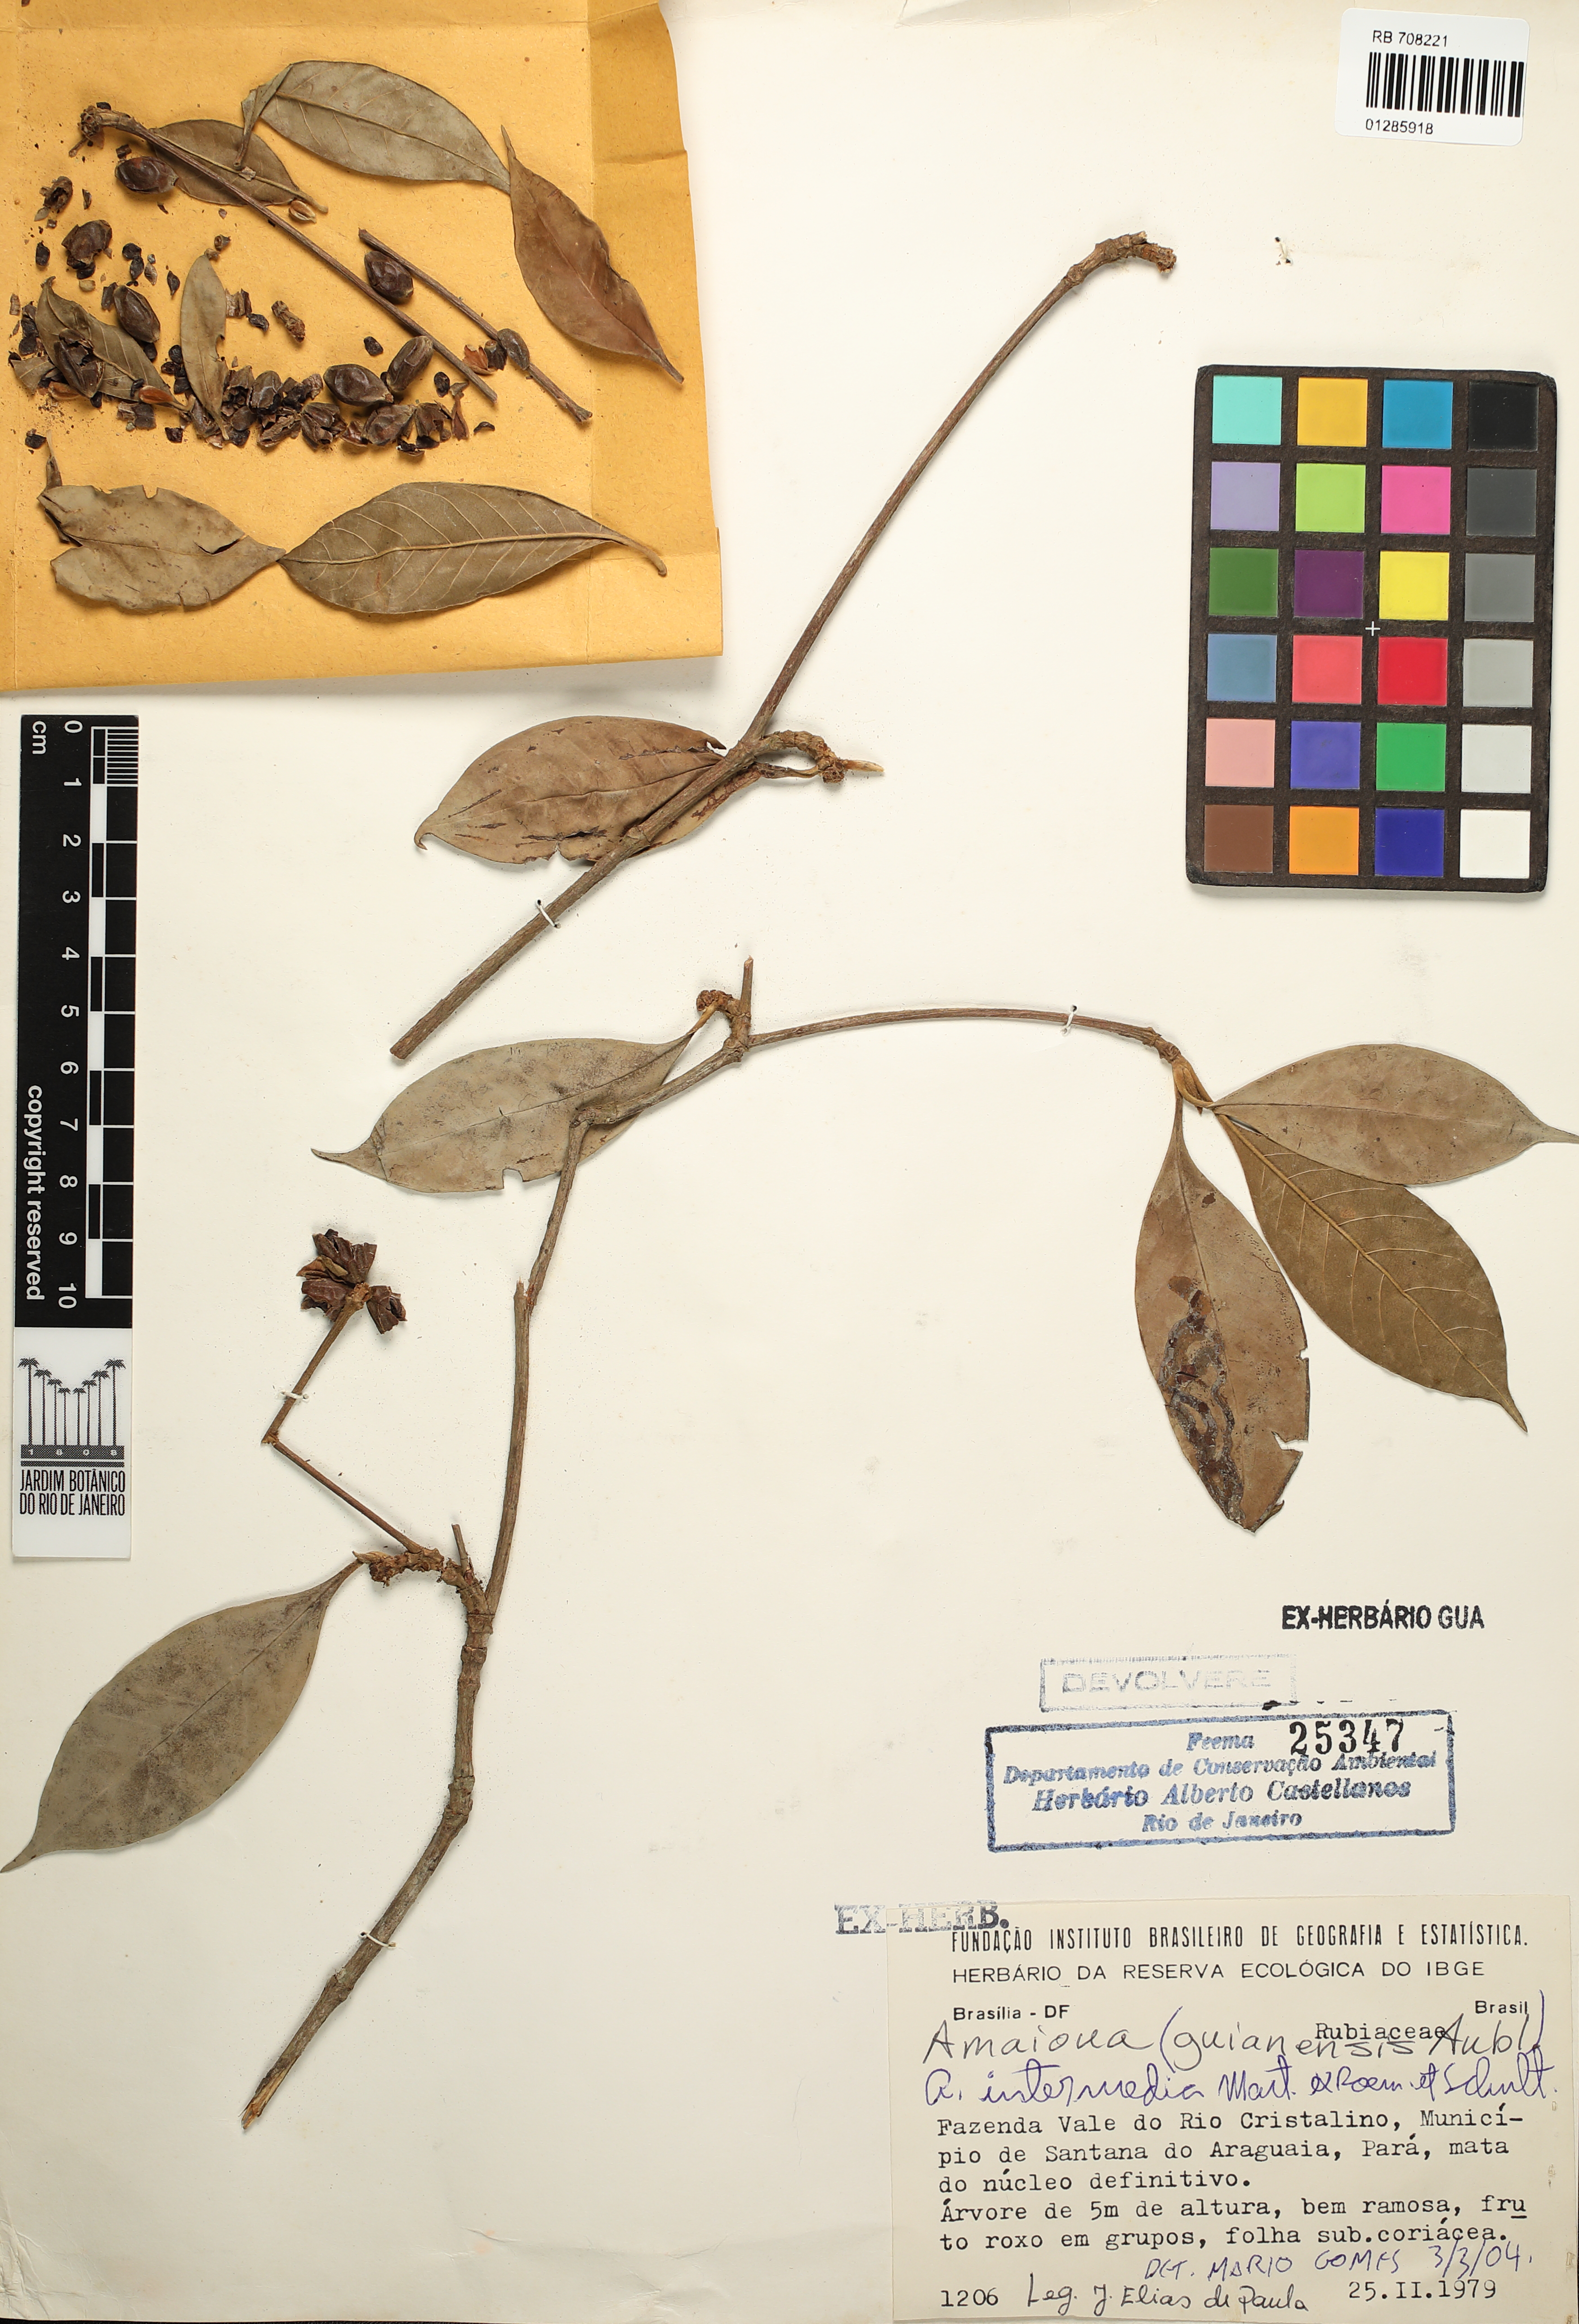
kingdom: Plantae
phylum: Tracheophyta
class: Magnoliopsida
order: Gentianales
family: Rubiaceae
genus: Amaioua
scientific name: Amaioua intermedia
